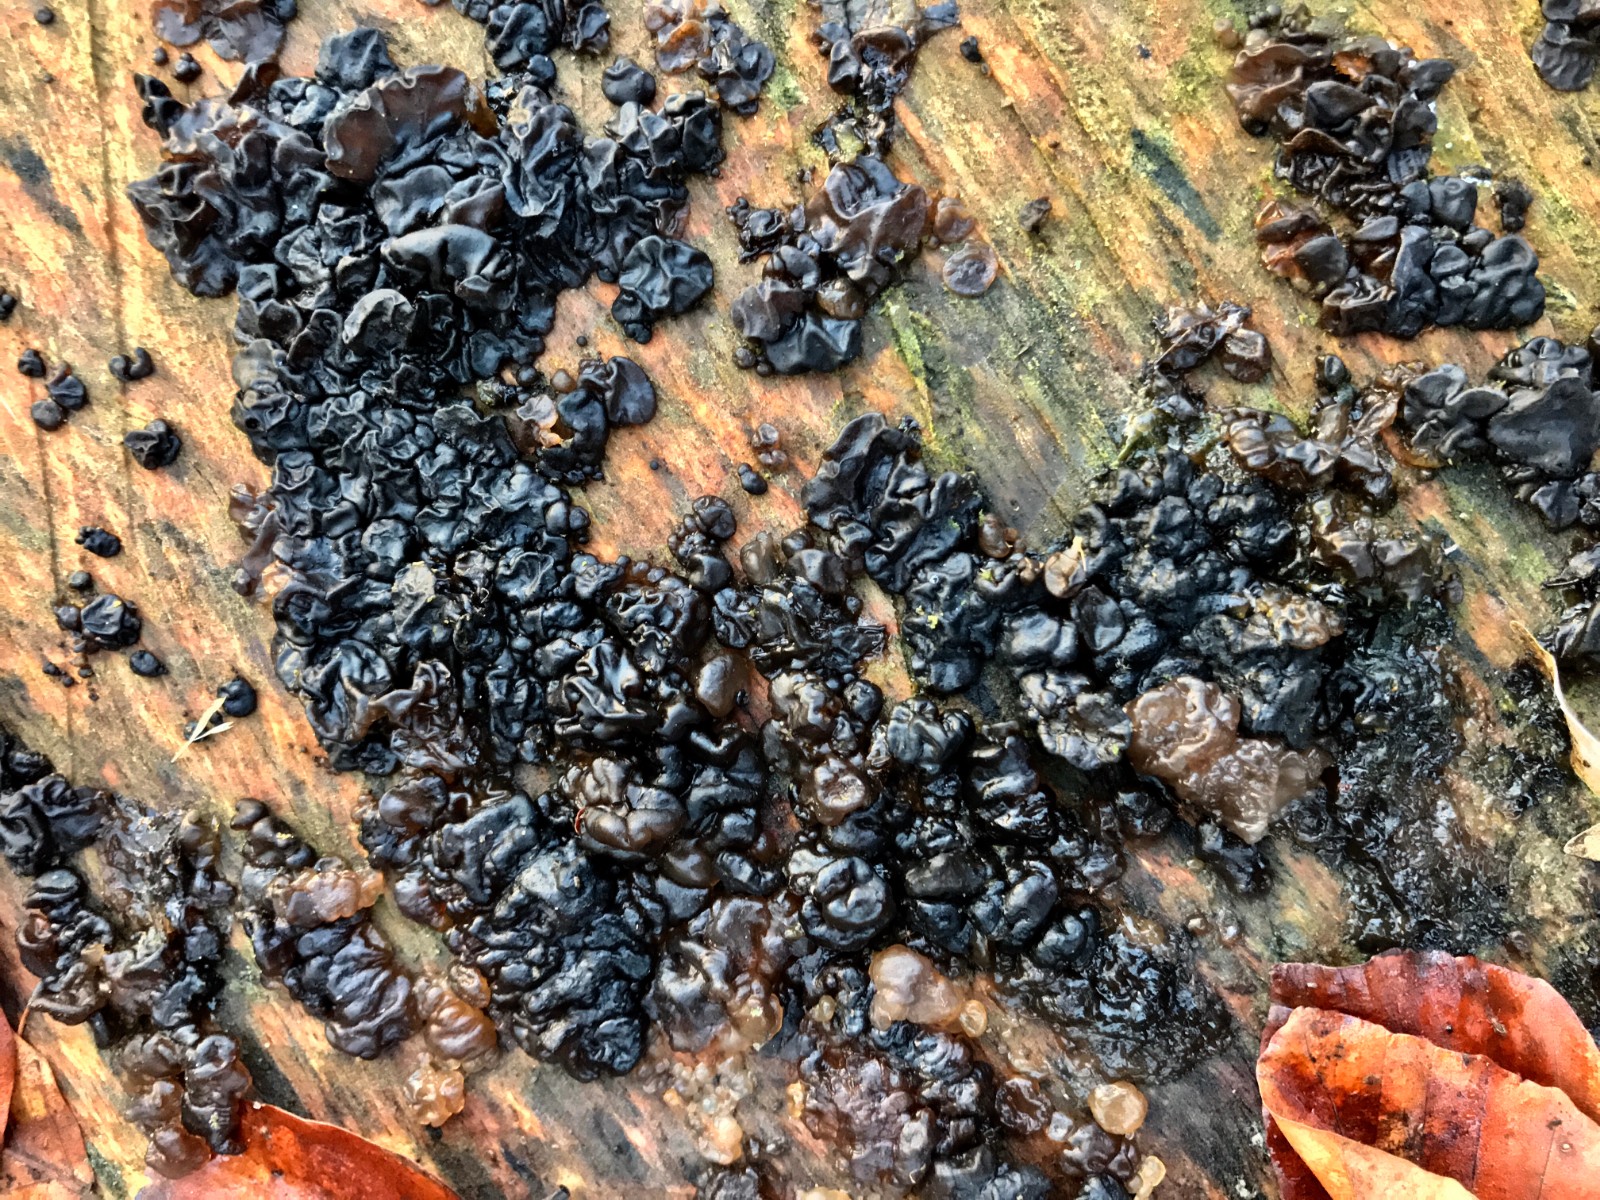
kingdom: Fungi
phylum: Basidiomycota
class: Agaricomycetes
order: Auriculariales
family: Auriculariaceae
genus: Exidia
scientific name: Exidia nigricans
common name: almindelig bævretop
